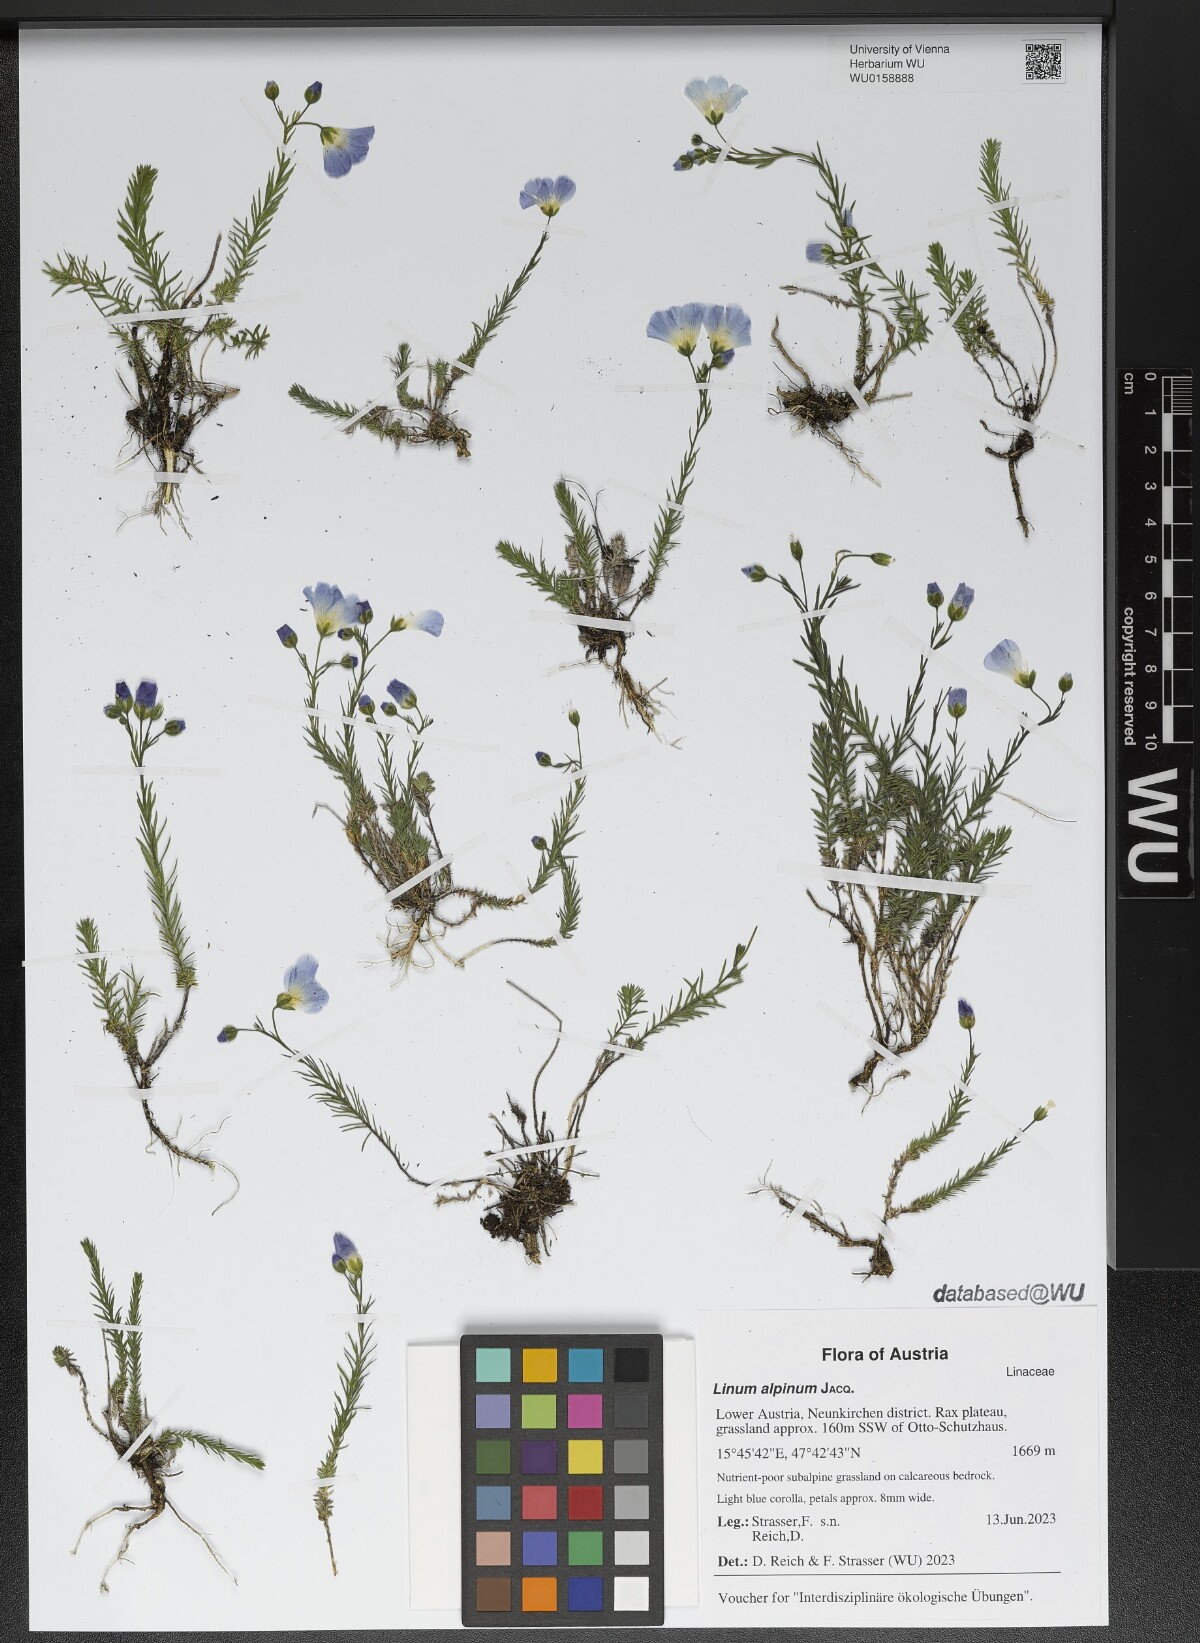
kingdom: Plantae
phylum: Tracheophyta
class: Magnoliopsida
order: Malpighiales
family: Linaceae
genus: Linum
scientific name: Linum alpinum
